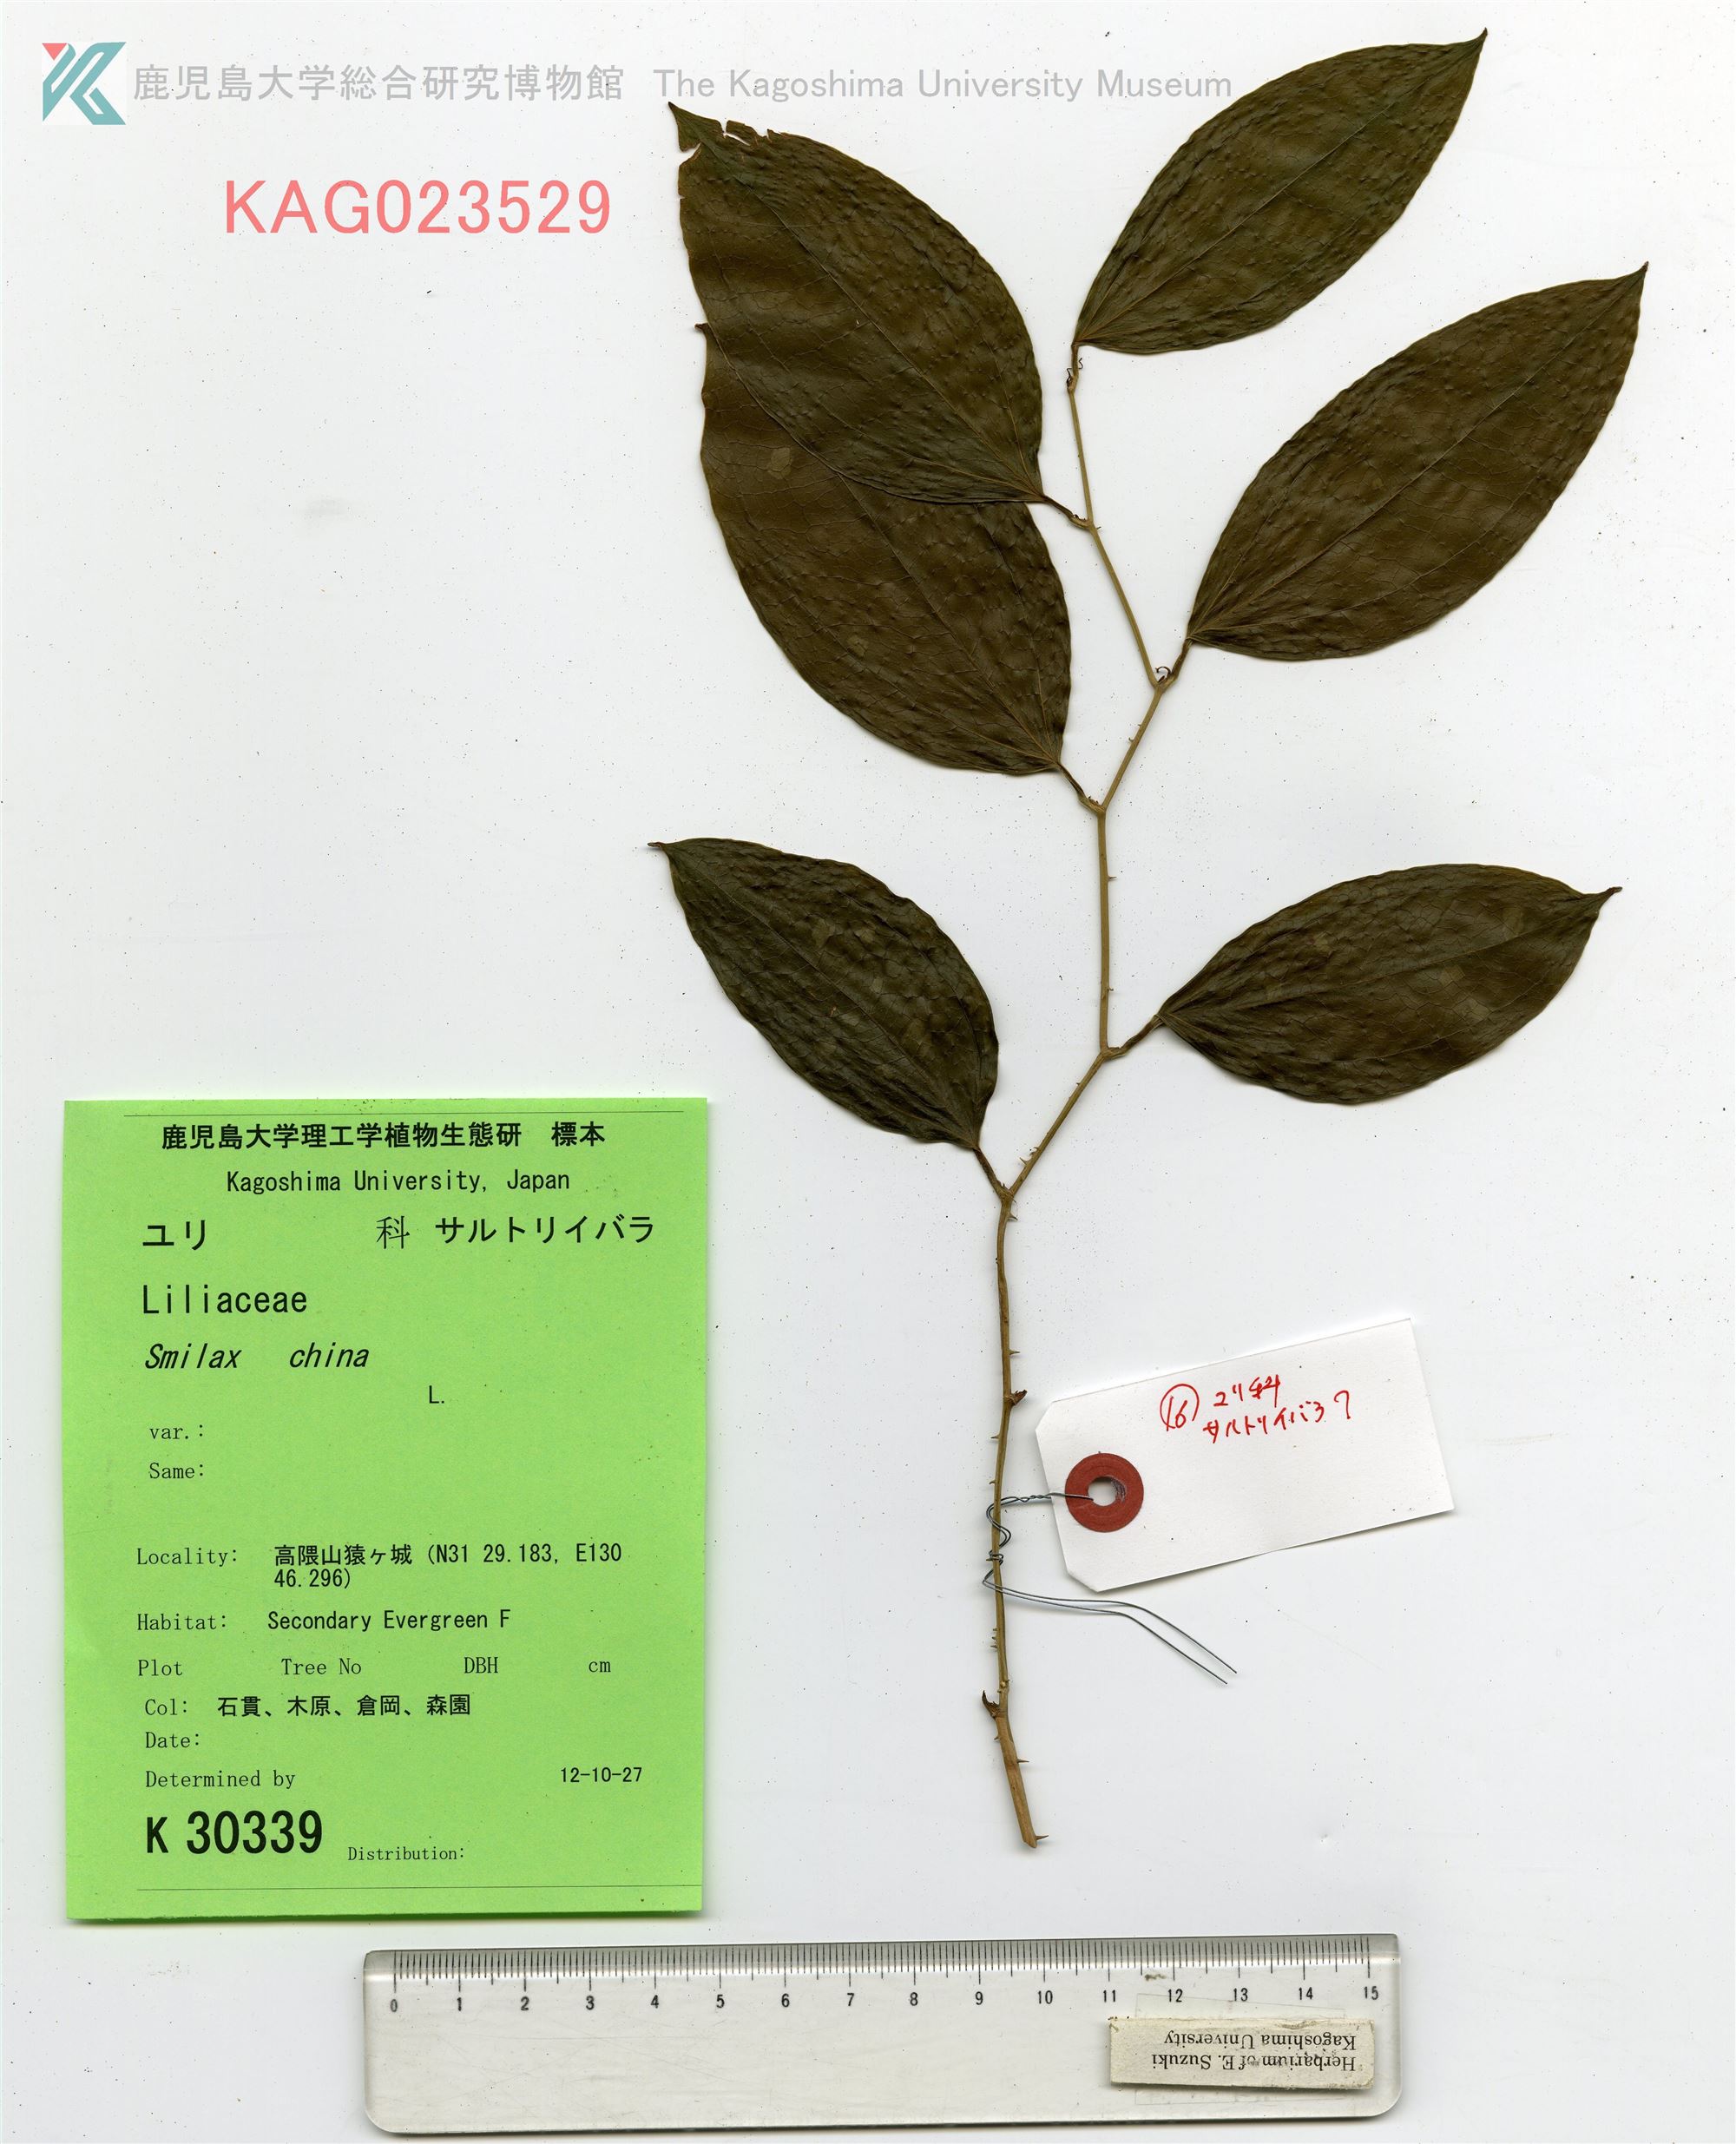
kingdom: Plantae
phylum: Tracheophyta
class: Liliopsida
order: Liliales
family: Smilacaceae
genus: Smilax
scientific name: Smilax bracteata
